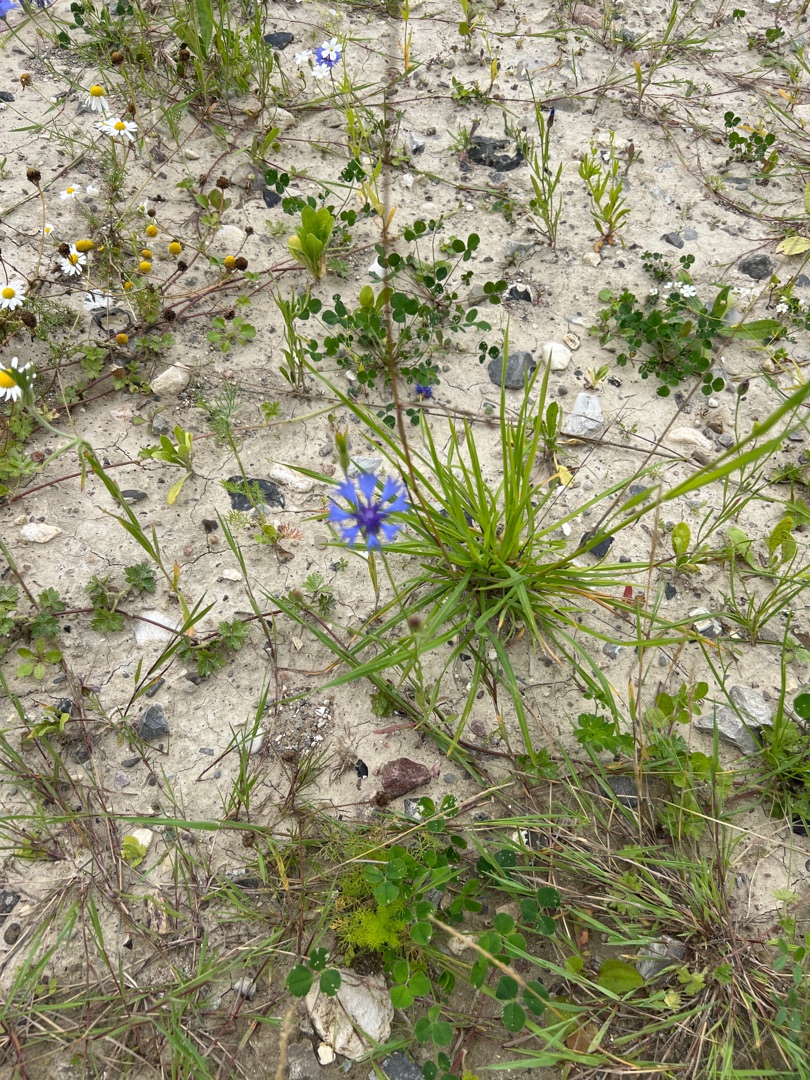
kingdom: Plantae
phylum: Tracheophyta
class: Magnoliopsida
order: Asterales
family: Asteraceae
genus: Centaurea
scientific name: Centaurea cyanus
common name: Kornblomst
